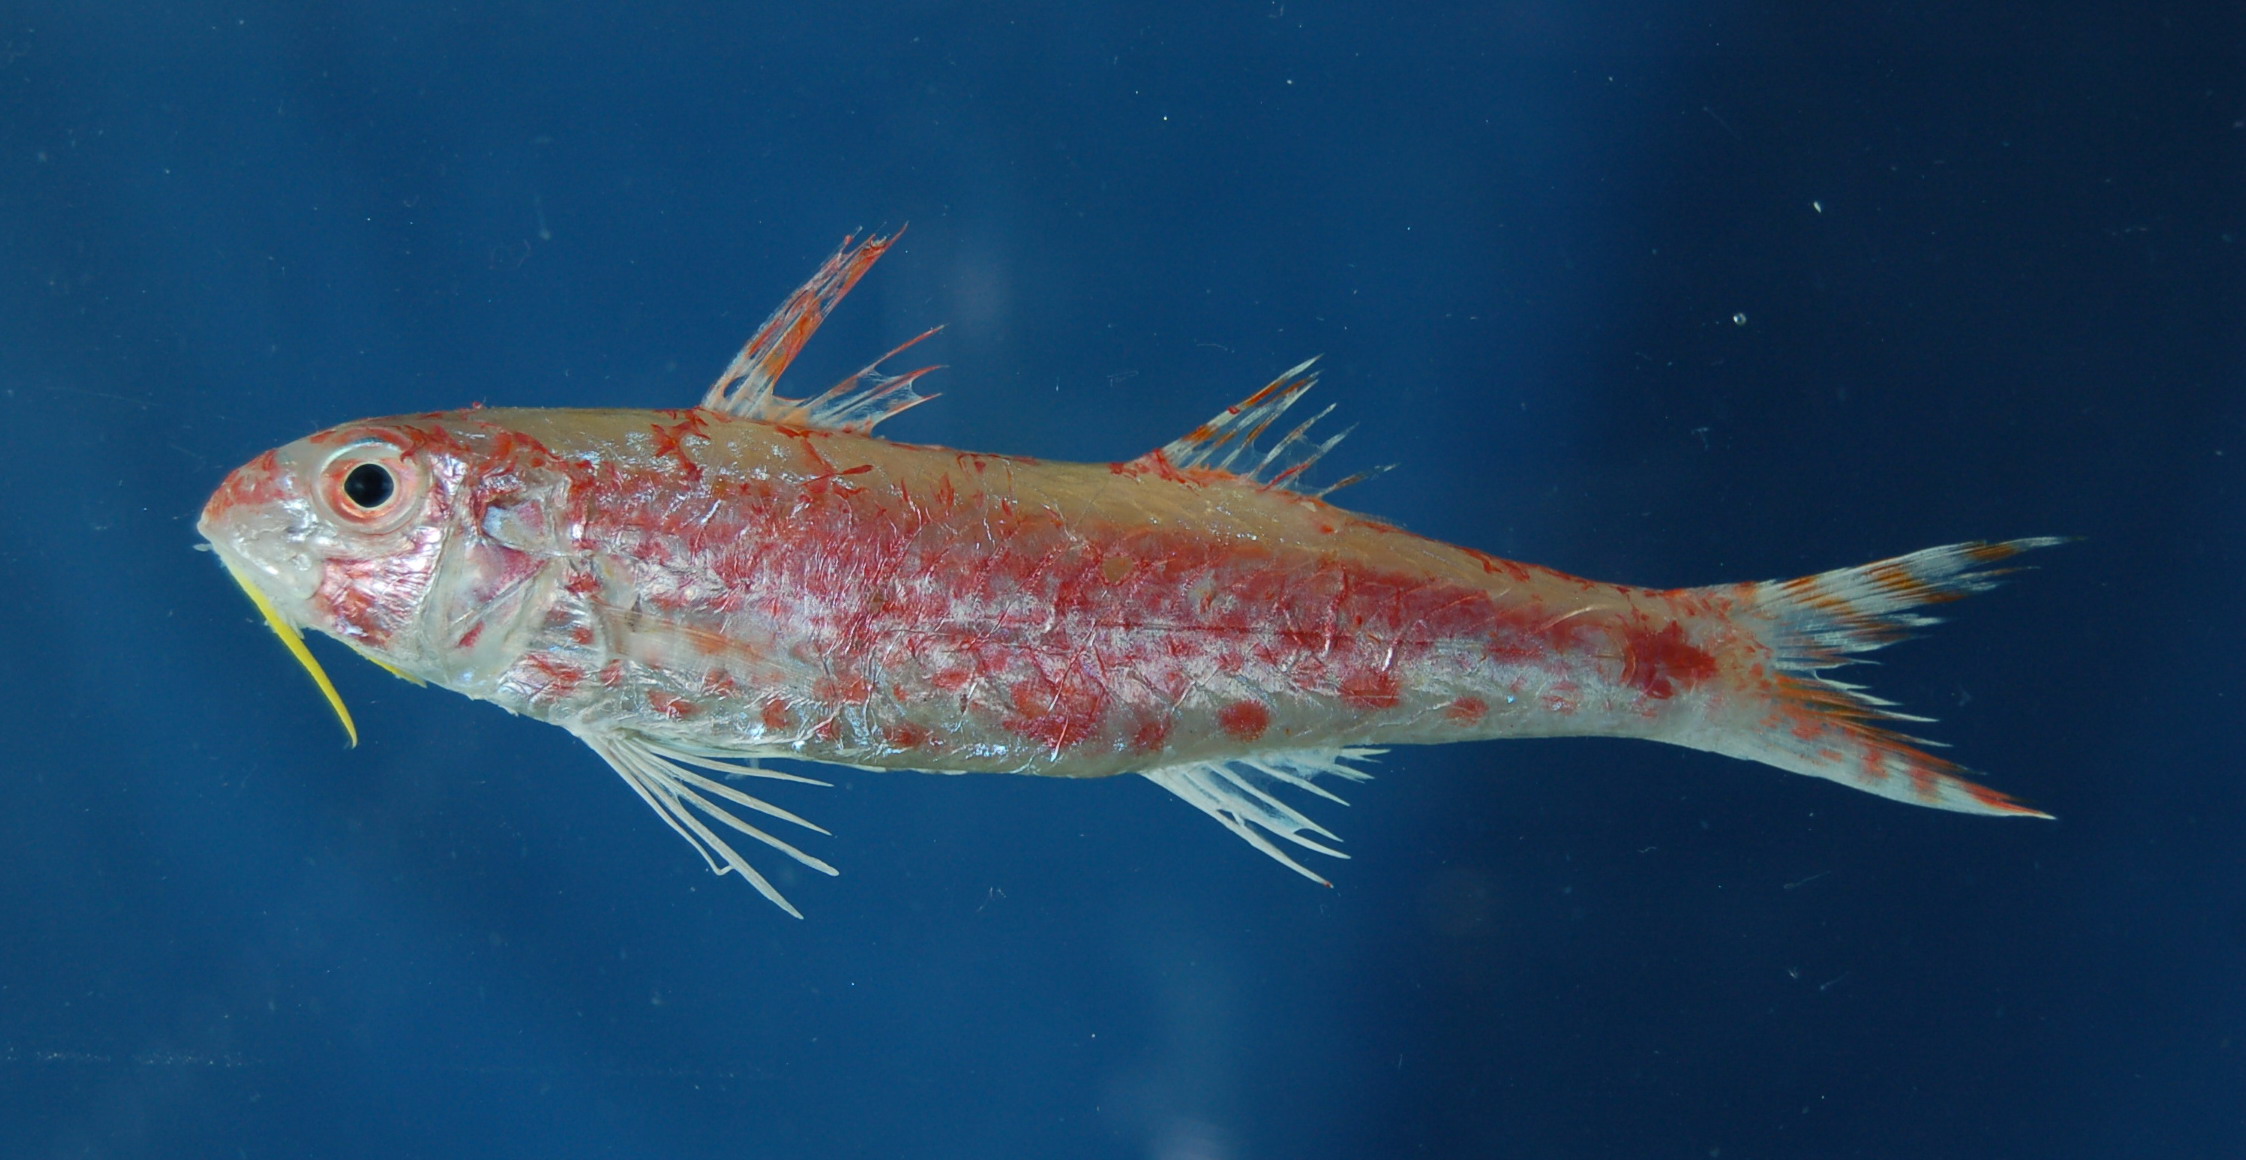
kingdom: Animalia
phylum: Chordata
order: Perciformes
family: Mullidae
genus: Upeneus
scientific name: Upeneus guttatus
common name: Spotted goatfish
